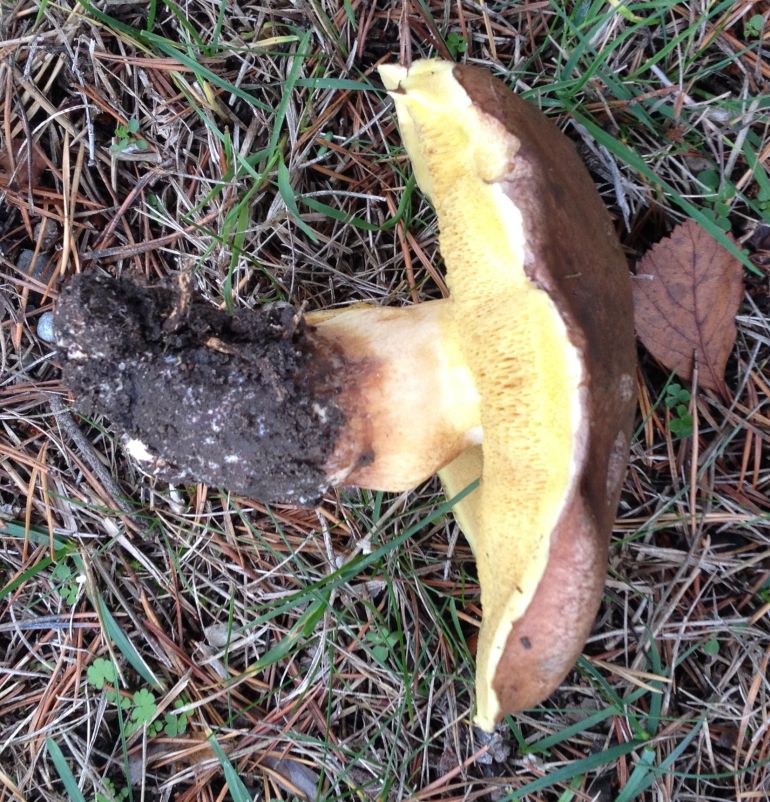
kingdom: Fungi
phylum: Basidiomycota
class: Agaricomycetes
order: Boletales
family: Suillaceae
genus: Suillus
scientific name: Suillus collinitus
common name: rosafodet slimrørhat
